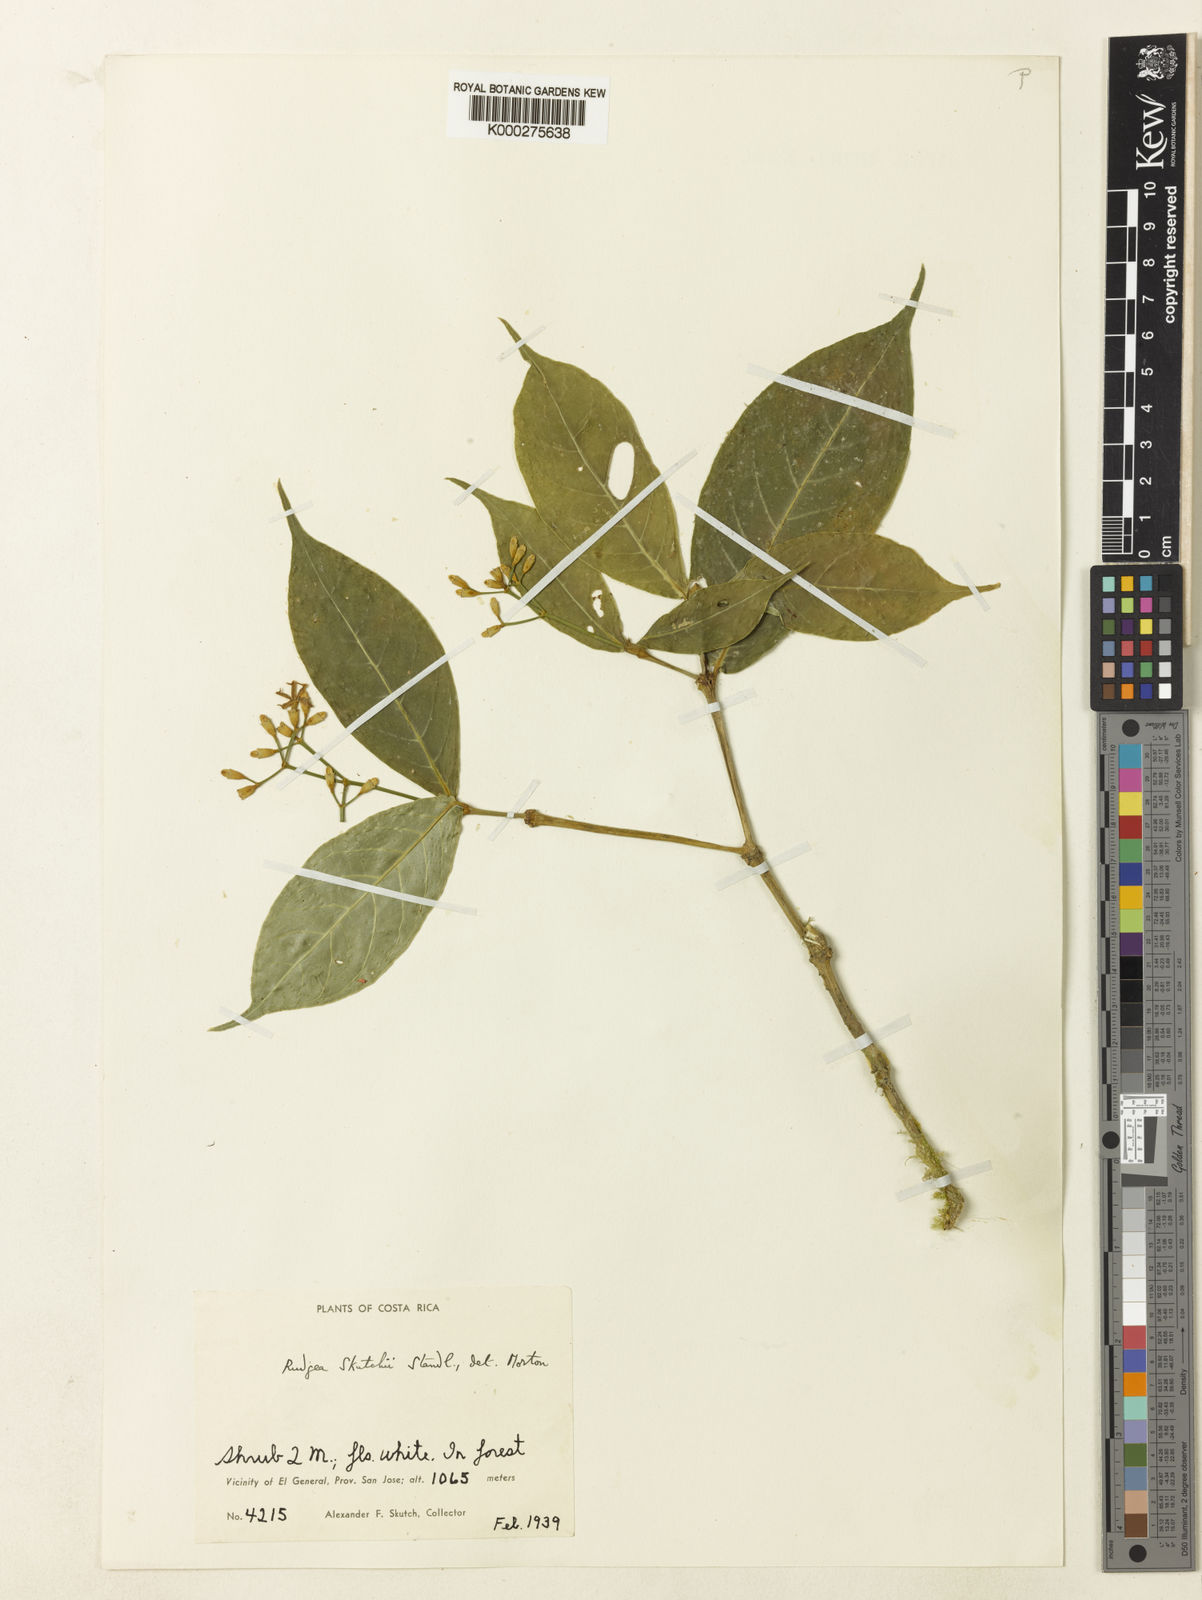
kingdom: Plantae
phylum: Tracheophyta
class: Magnoliopsida
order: Gentianales
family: Rubiaceae
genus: Rudgea
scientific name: Rudgea skutchii
